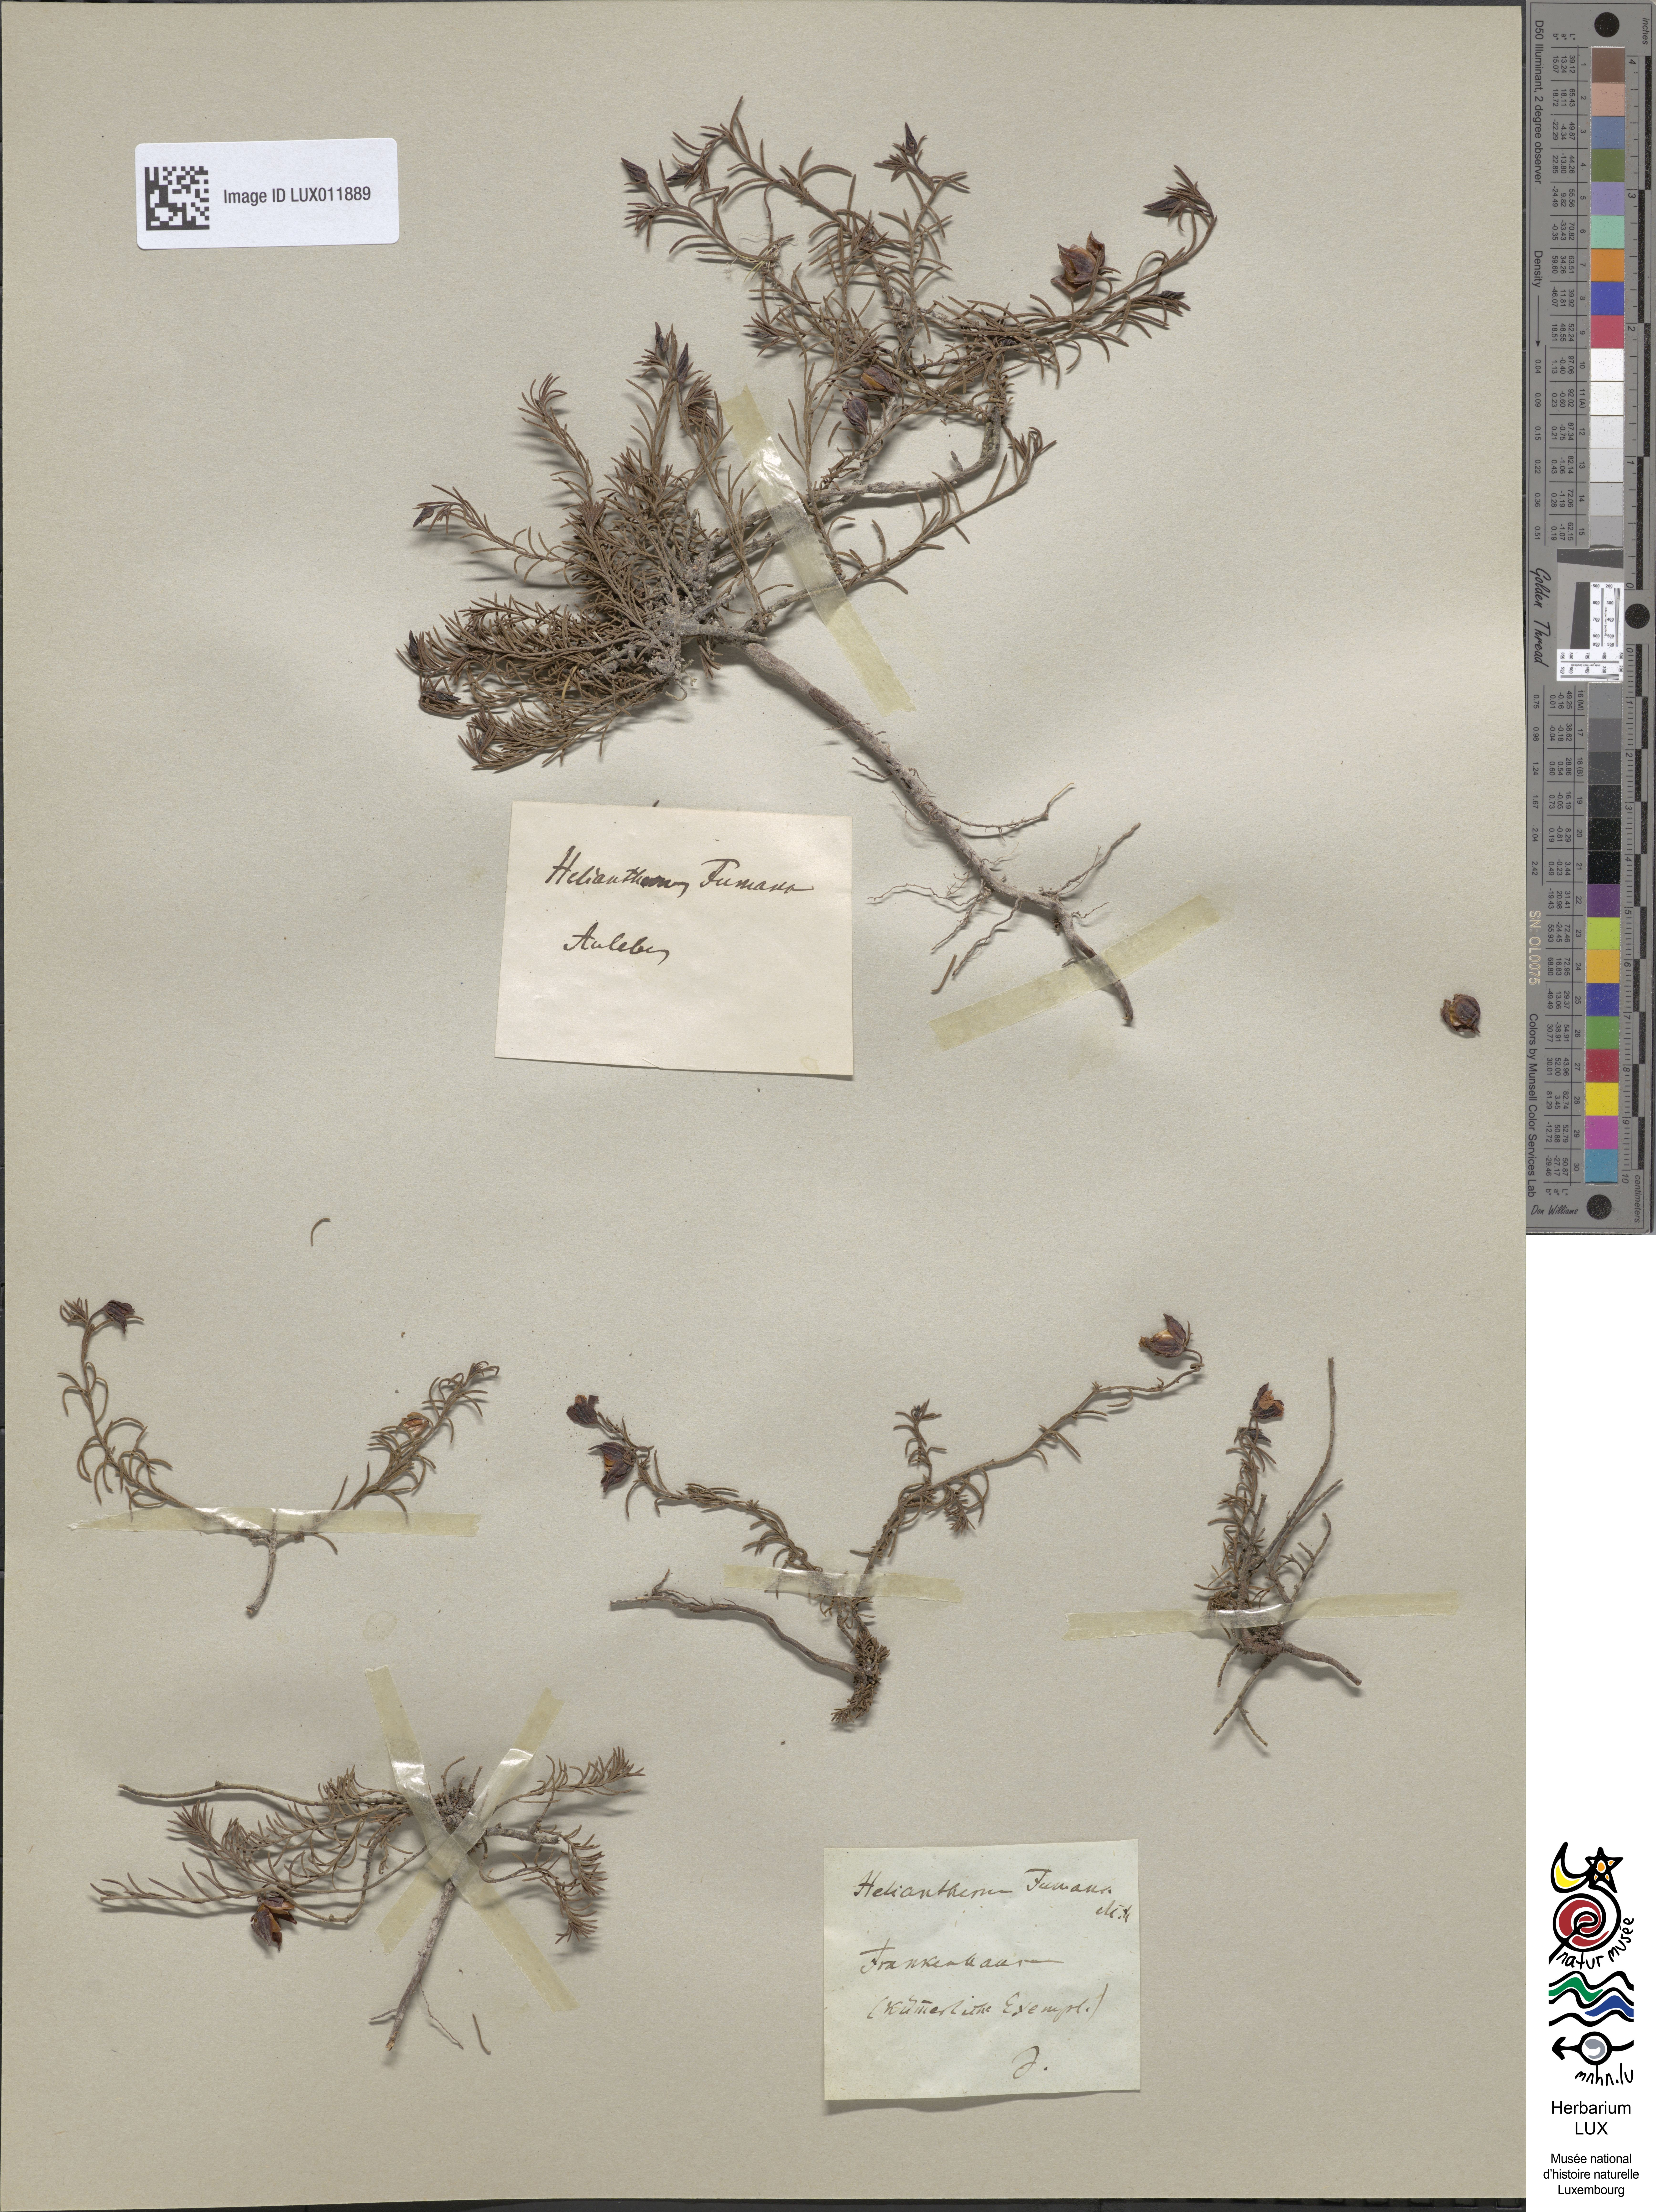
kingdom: Plantae
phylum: Tracheophyta
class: Magnoliopsida
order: Malvales
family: Cistaceae
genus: Fumana
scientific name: Fumana ericoides
